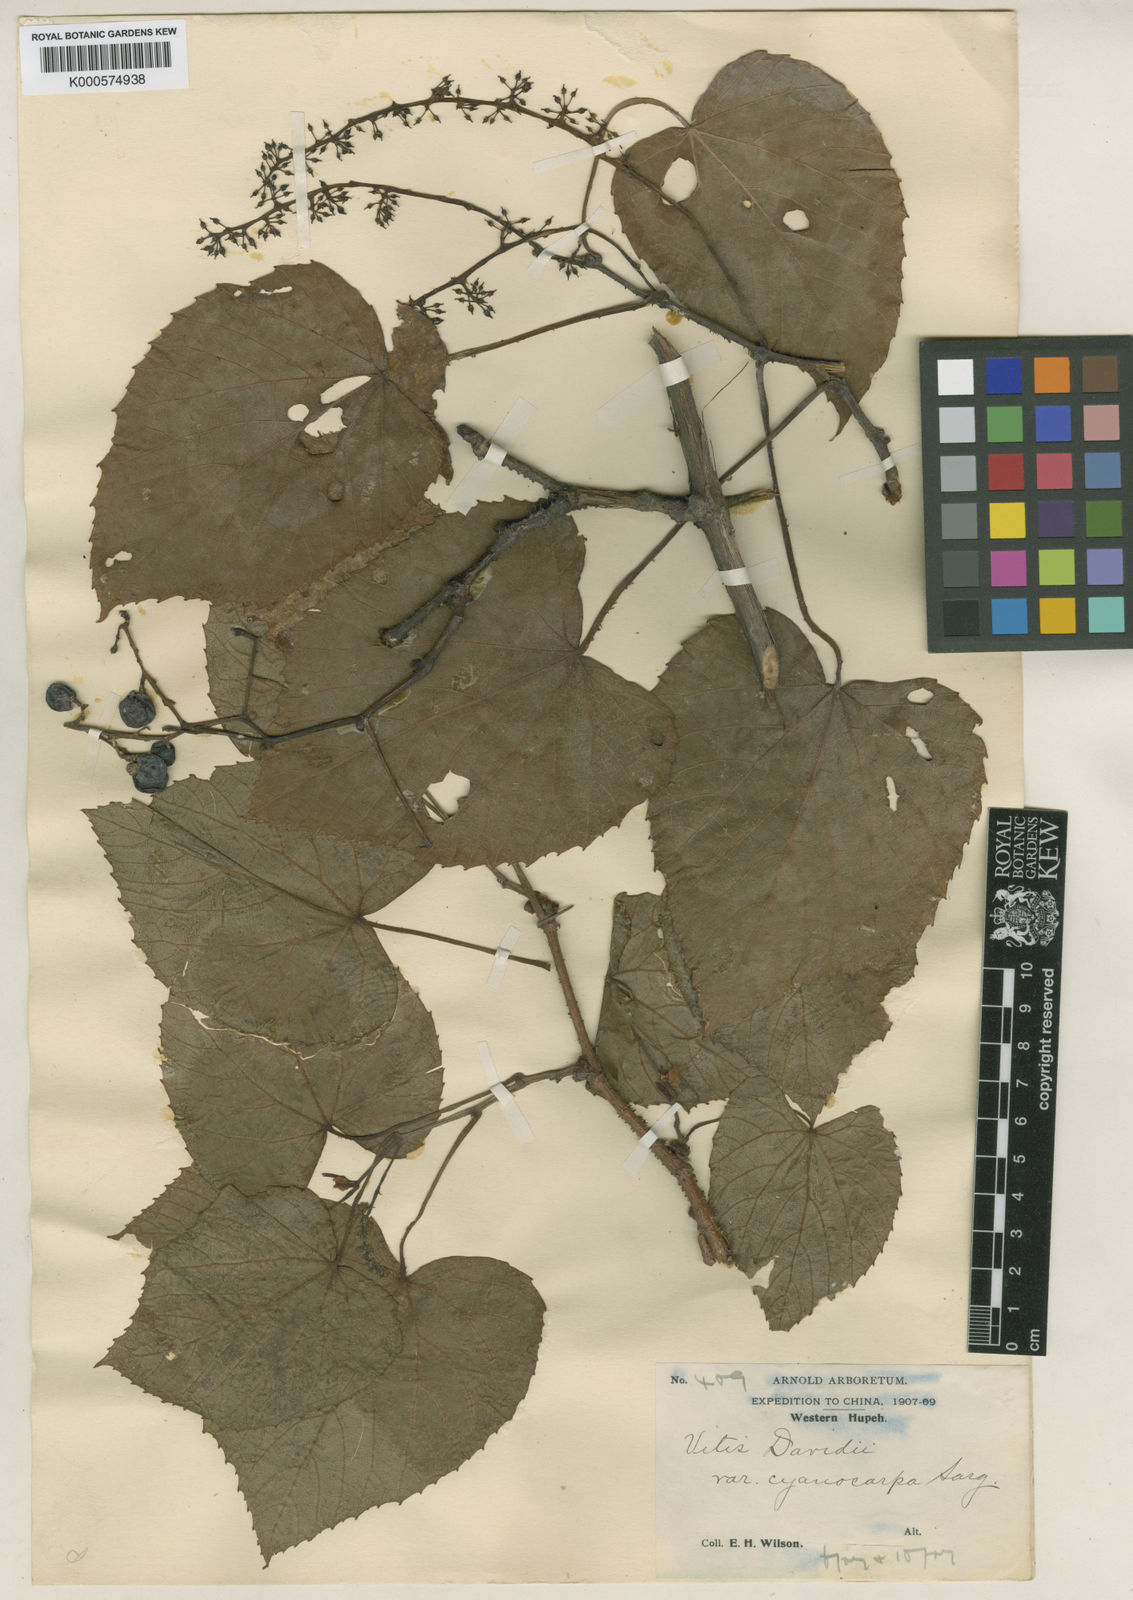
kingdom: Plantae
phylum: Tracheophyta
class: Magnoliopsida
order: Vitales
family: Vitaceae
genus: Vitis
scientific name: Vitis
